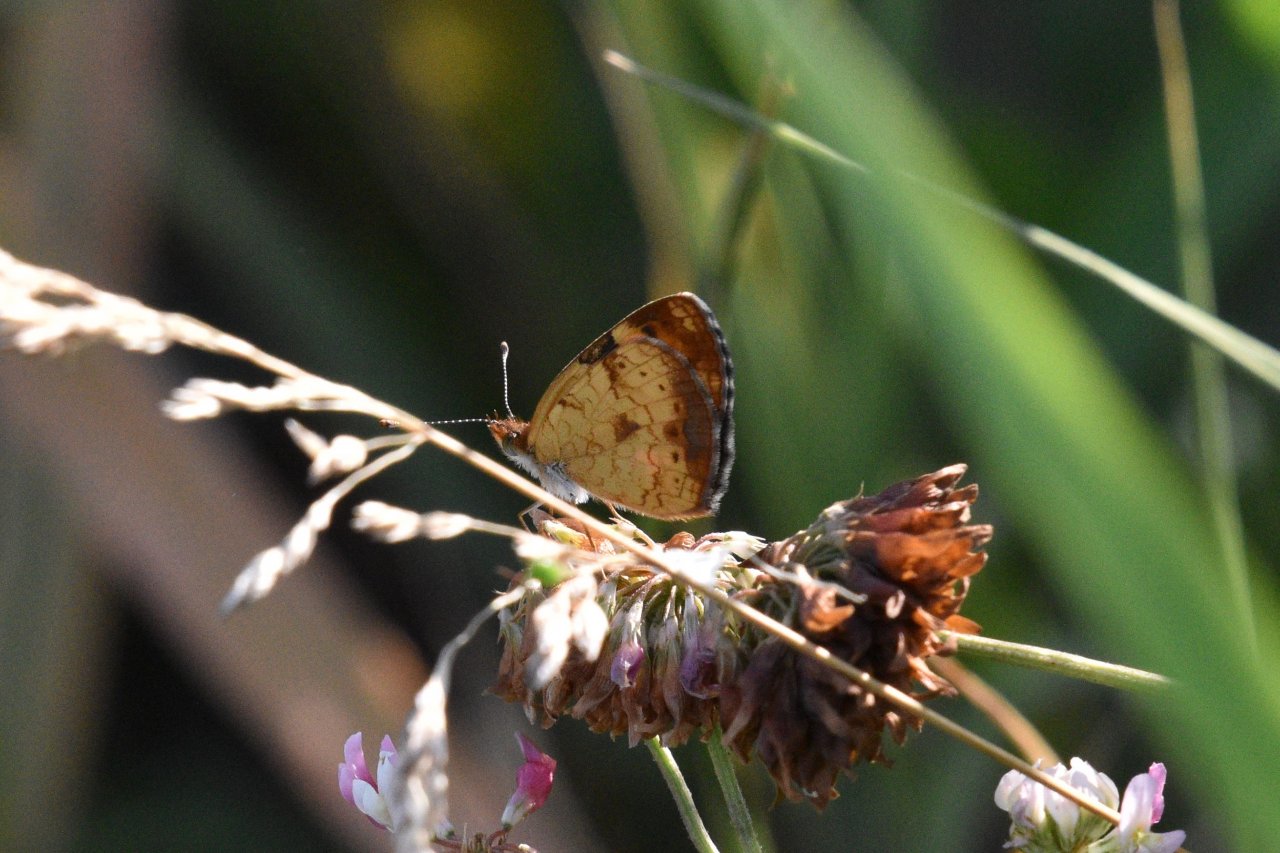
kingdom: Animalia
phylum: Arthropoda
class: Insecta
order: Lepidoptera
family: Nymphalidae
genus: Phyciodes
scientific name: Phyciodes tharos
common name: Northern Crescent
